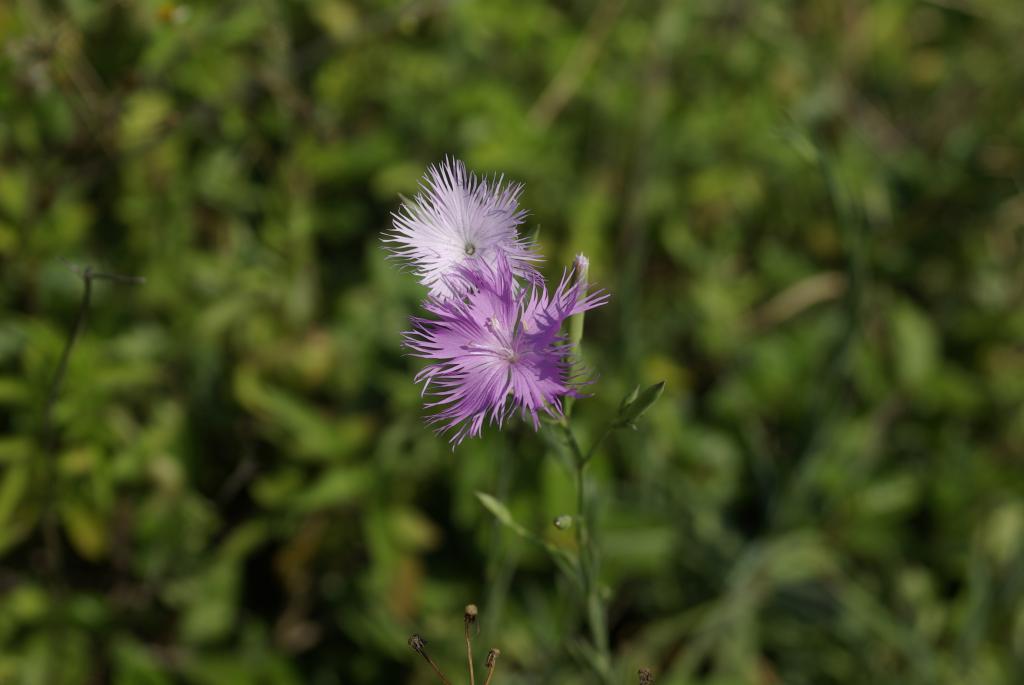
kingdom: Plantae
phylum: Tracheophyta
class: Magnoliopsida
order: Caryophyllales
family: Caryophyllaceae
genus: Dianthus
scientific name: Dianthus longicalyx
